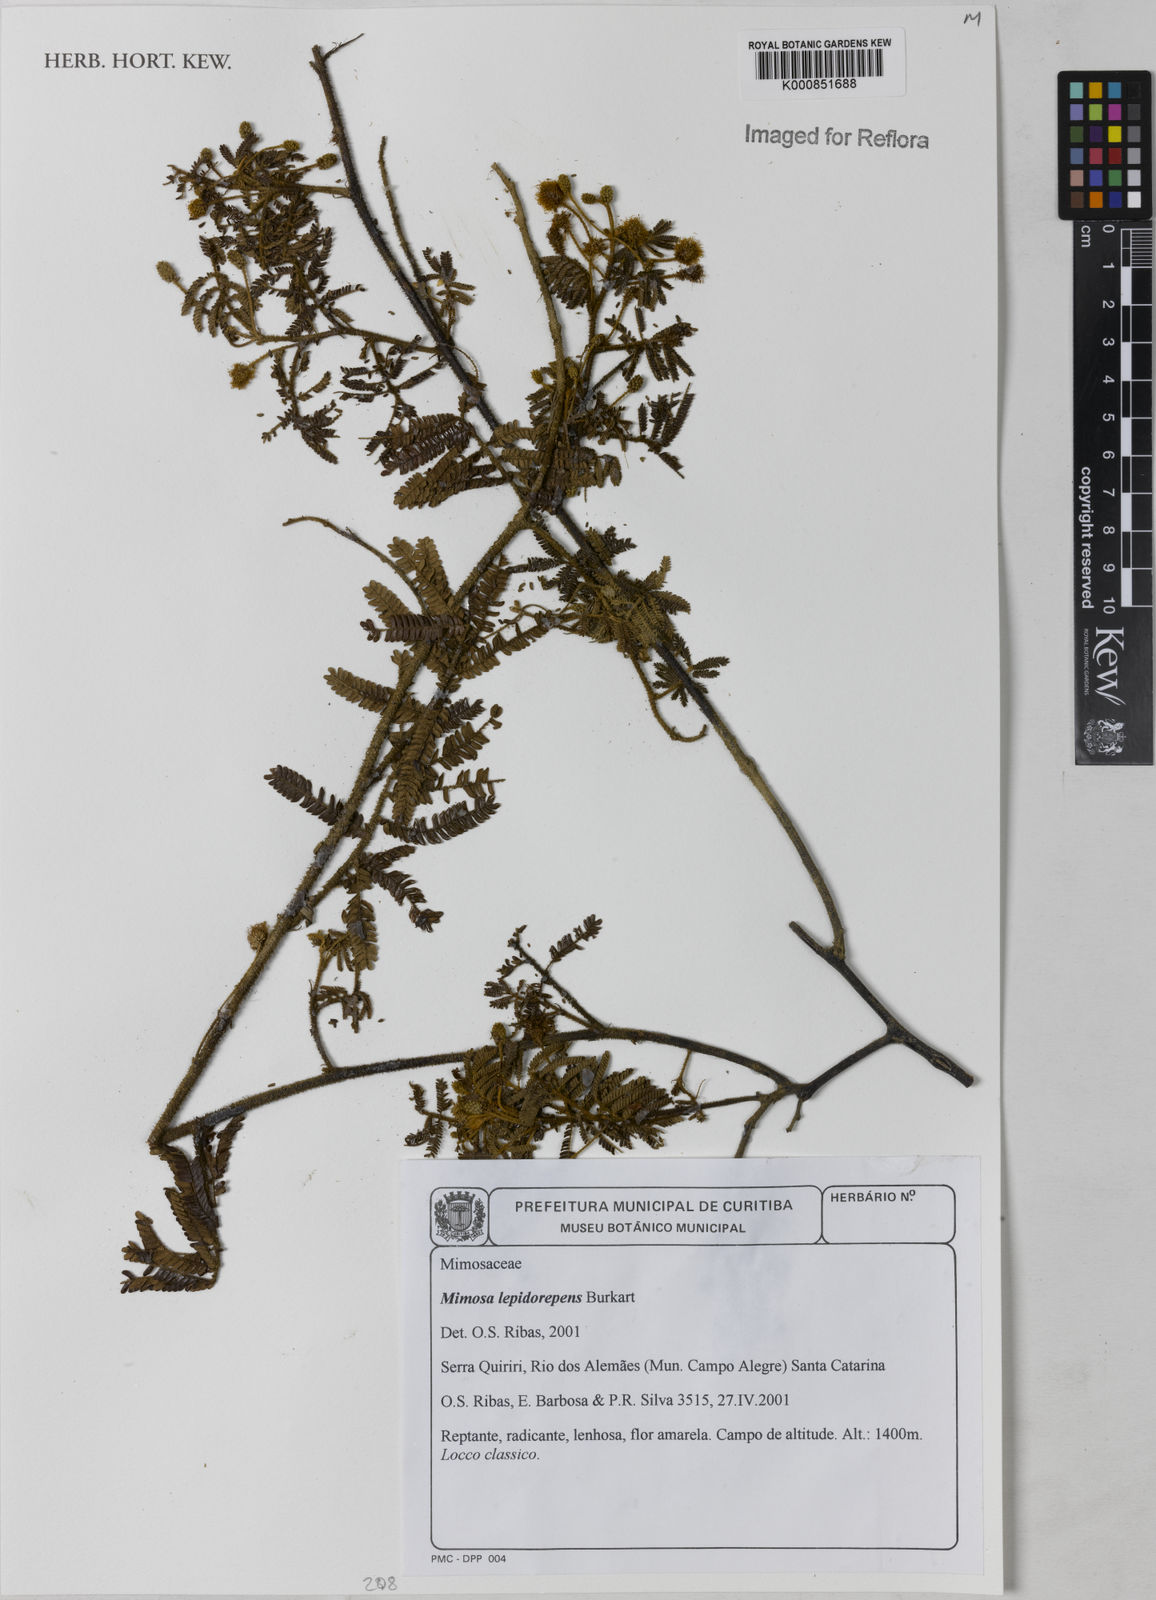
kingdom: Plantae
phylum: Tracheophyta
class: Magnoliopsida
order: Fabales
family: Fabaceae
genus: Mimosa
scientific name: Mimosa lepidorepens
